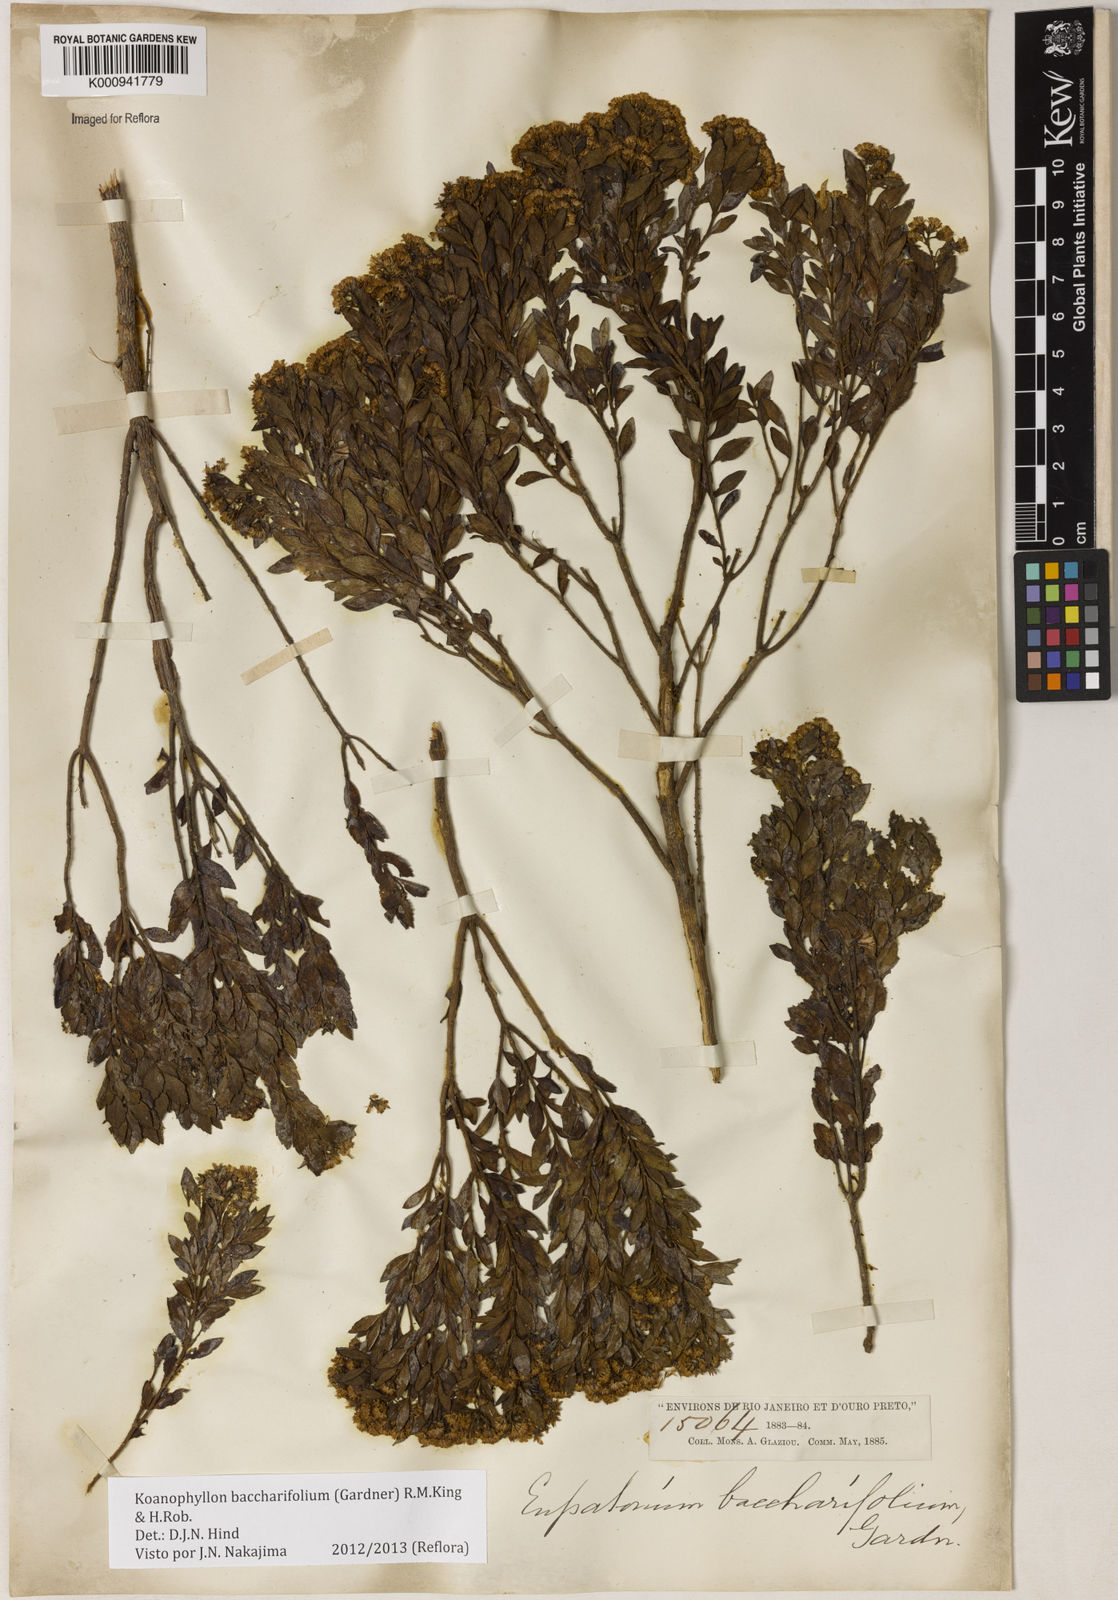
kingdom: Plantae
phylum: Tracheophyta
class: Magnoliopsida
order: Asterales
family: Asteraceae
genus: Koanophyllon
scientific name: Koanophyllon baccharifolium
